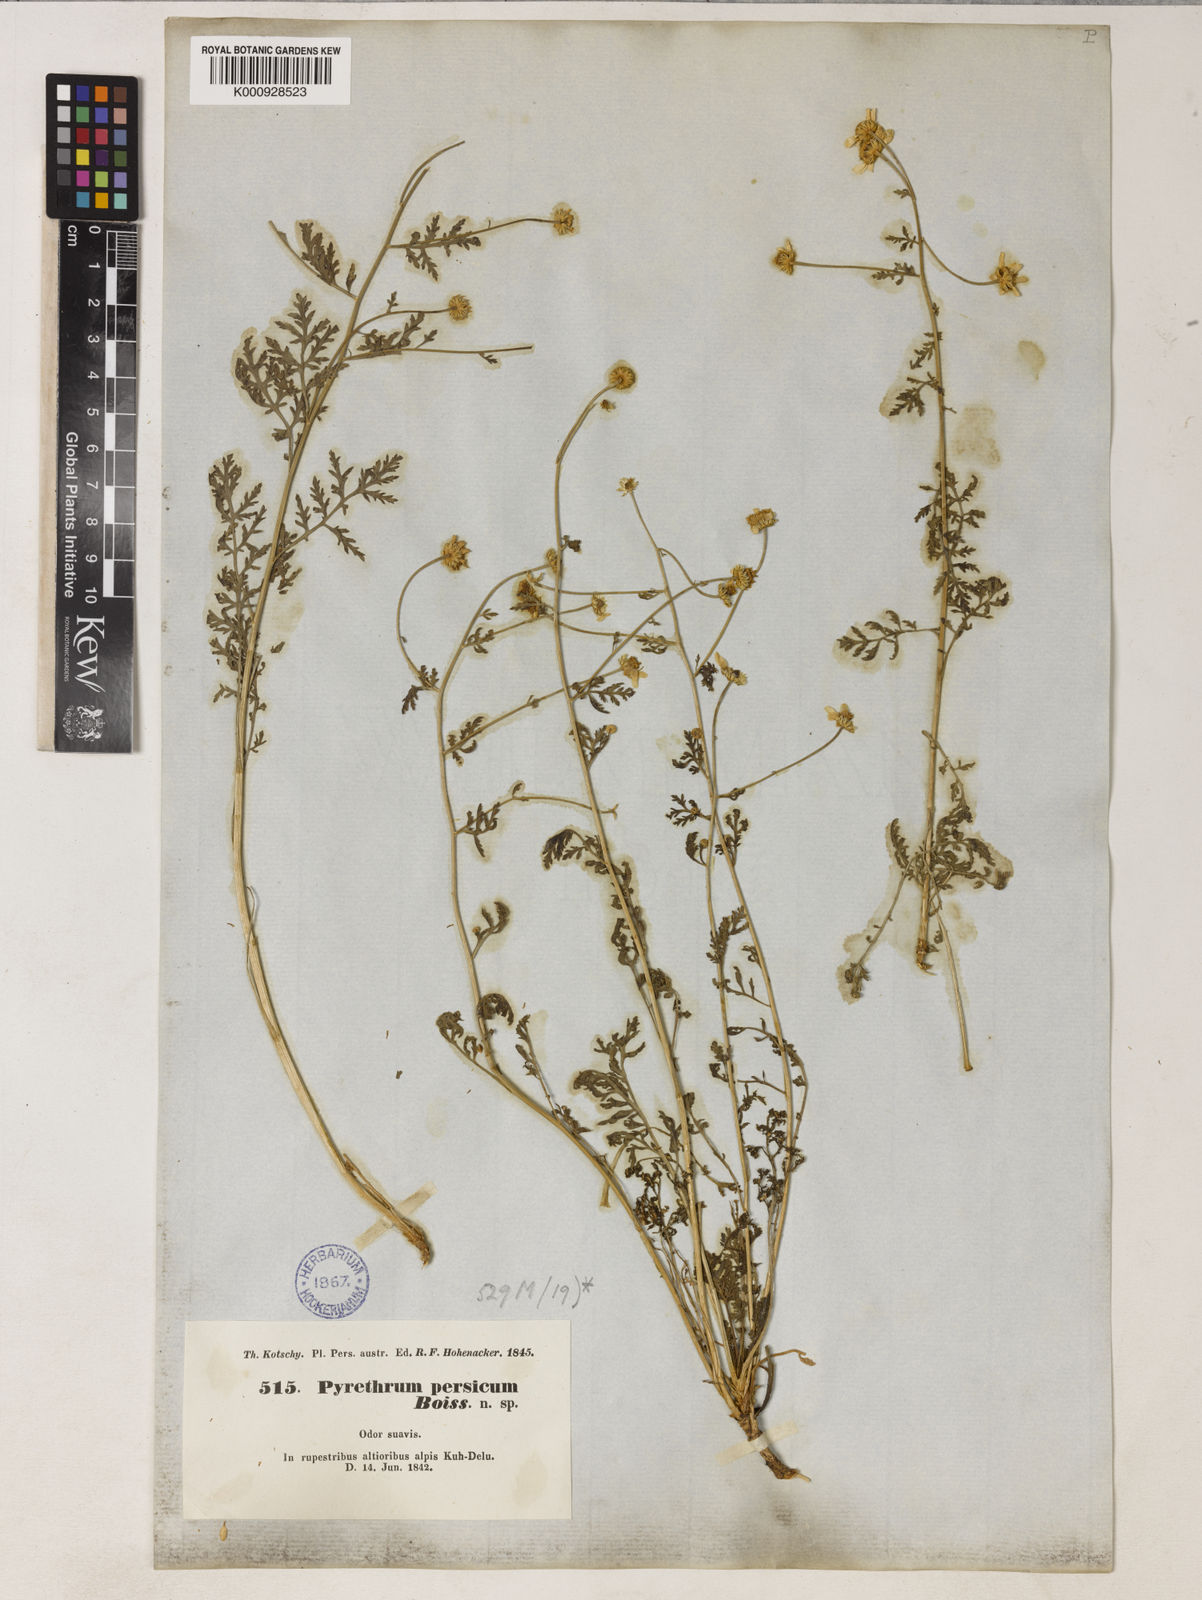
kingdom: Plantae
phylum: Tracheophyta
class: Magnoliopsida
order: Asterales
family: Asteraceae
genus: Tanacetum
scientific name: Tanacetum
